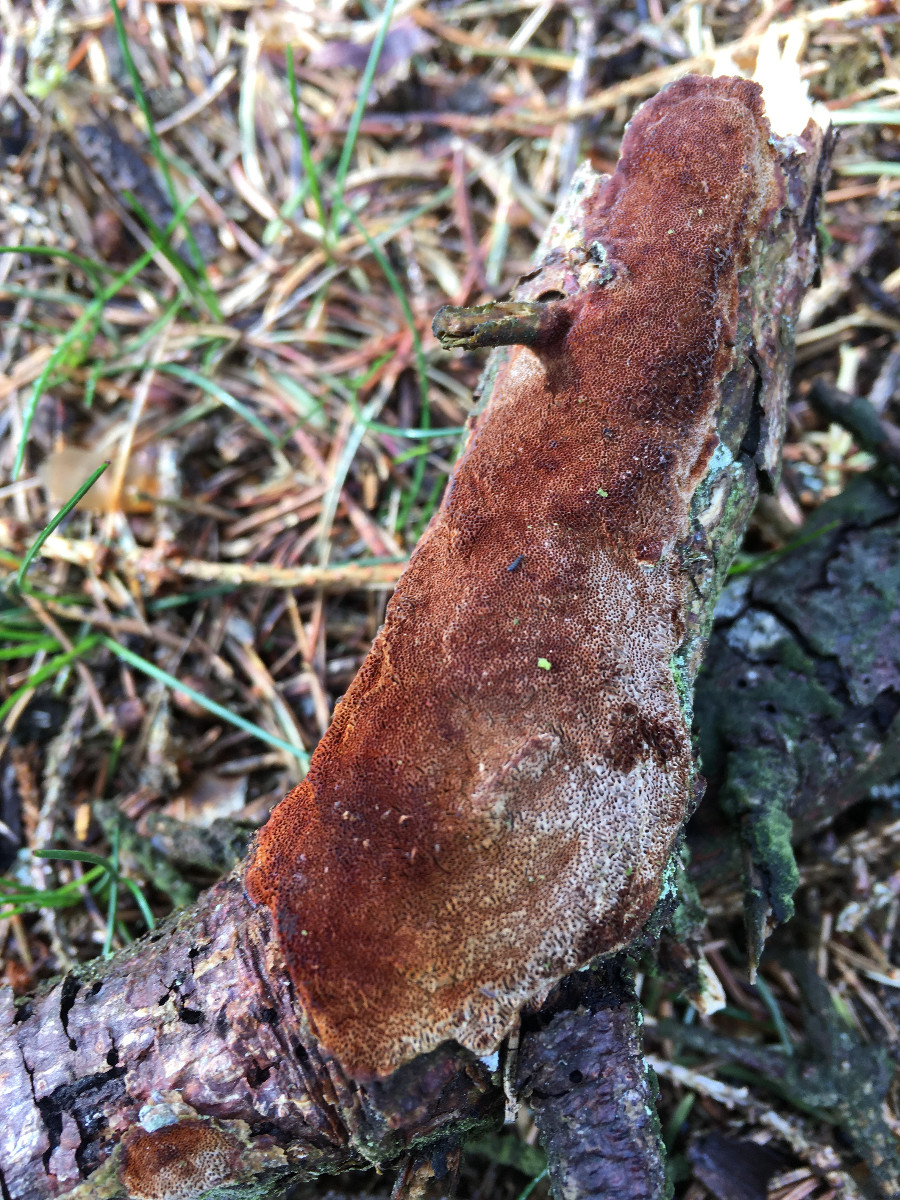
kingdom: Fungi
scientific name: Fungi
